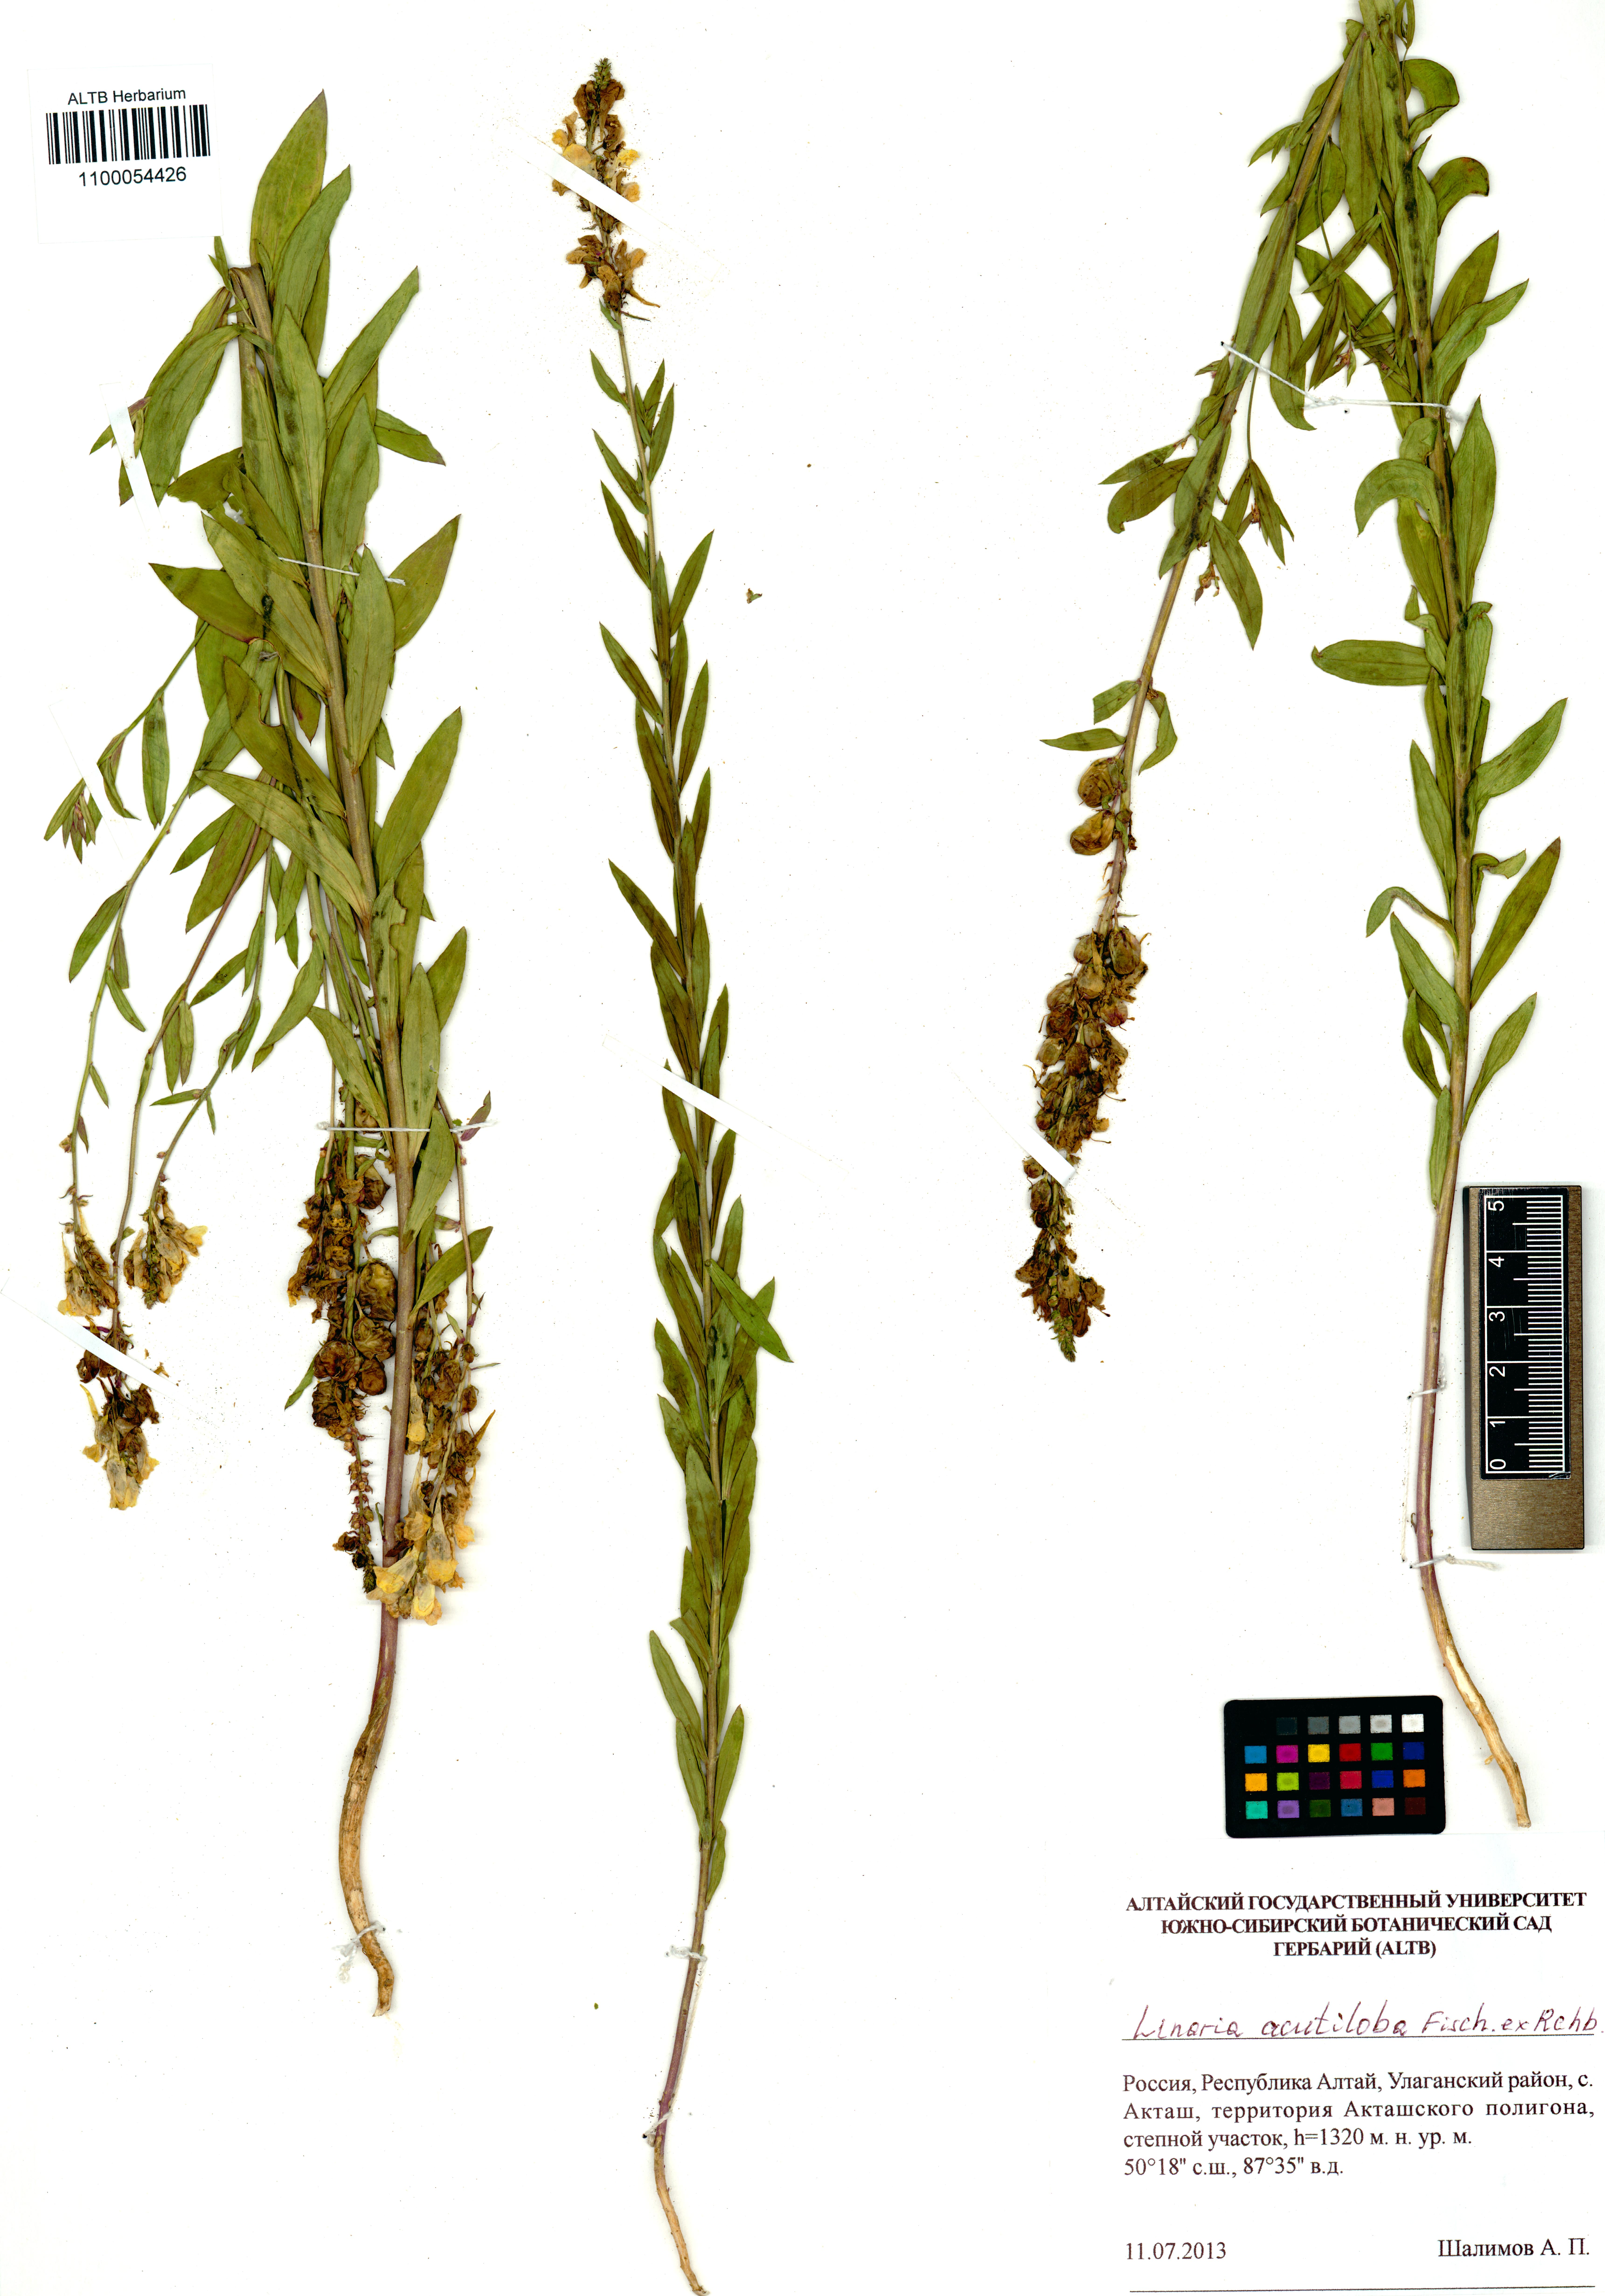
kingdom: Plantae
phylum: Tracheophyta
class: Magnoliopsida
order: Lamiales
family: Plantaginaceae
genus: Linaria
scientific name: Linaria acutiloba
